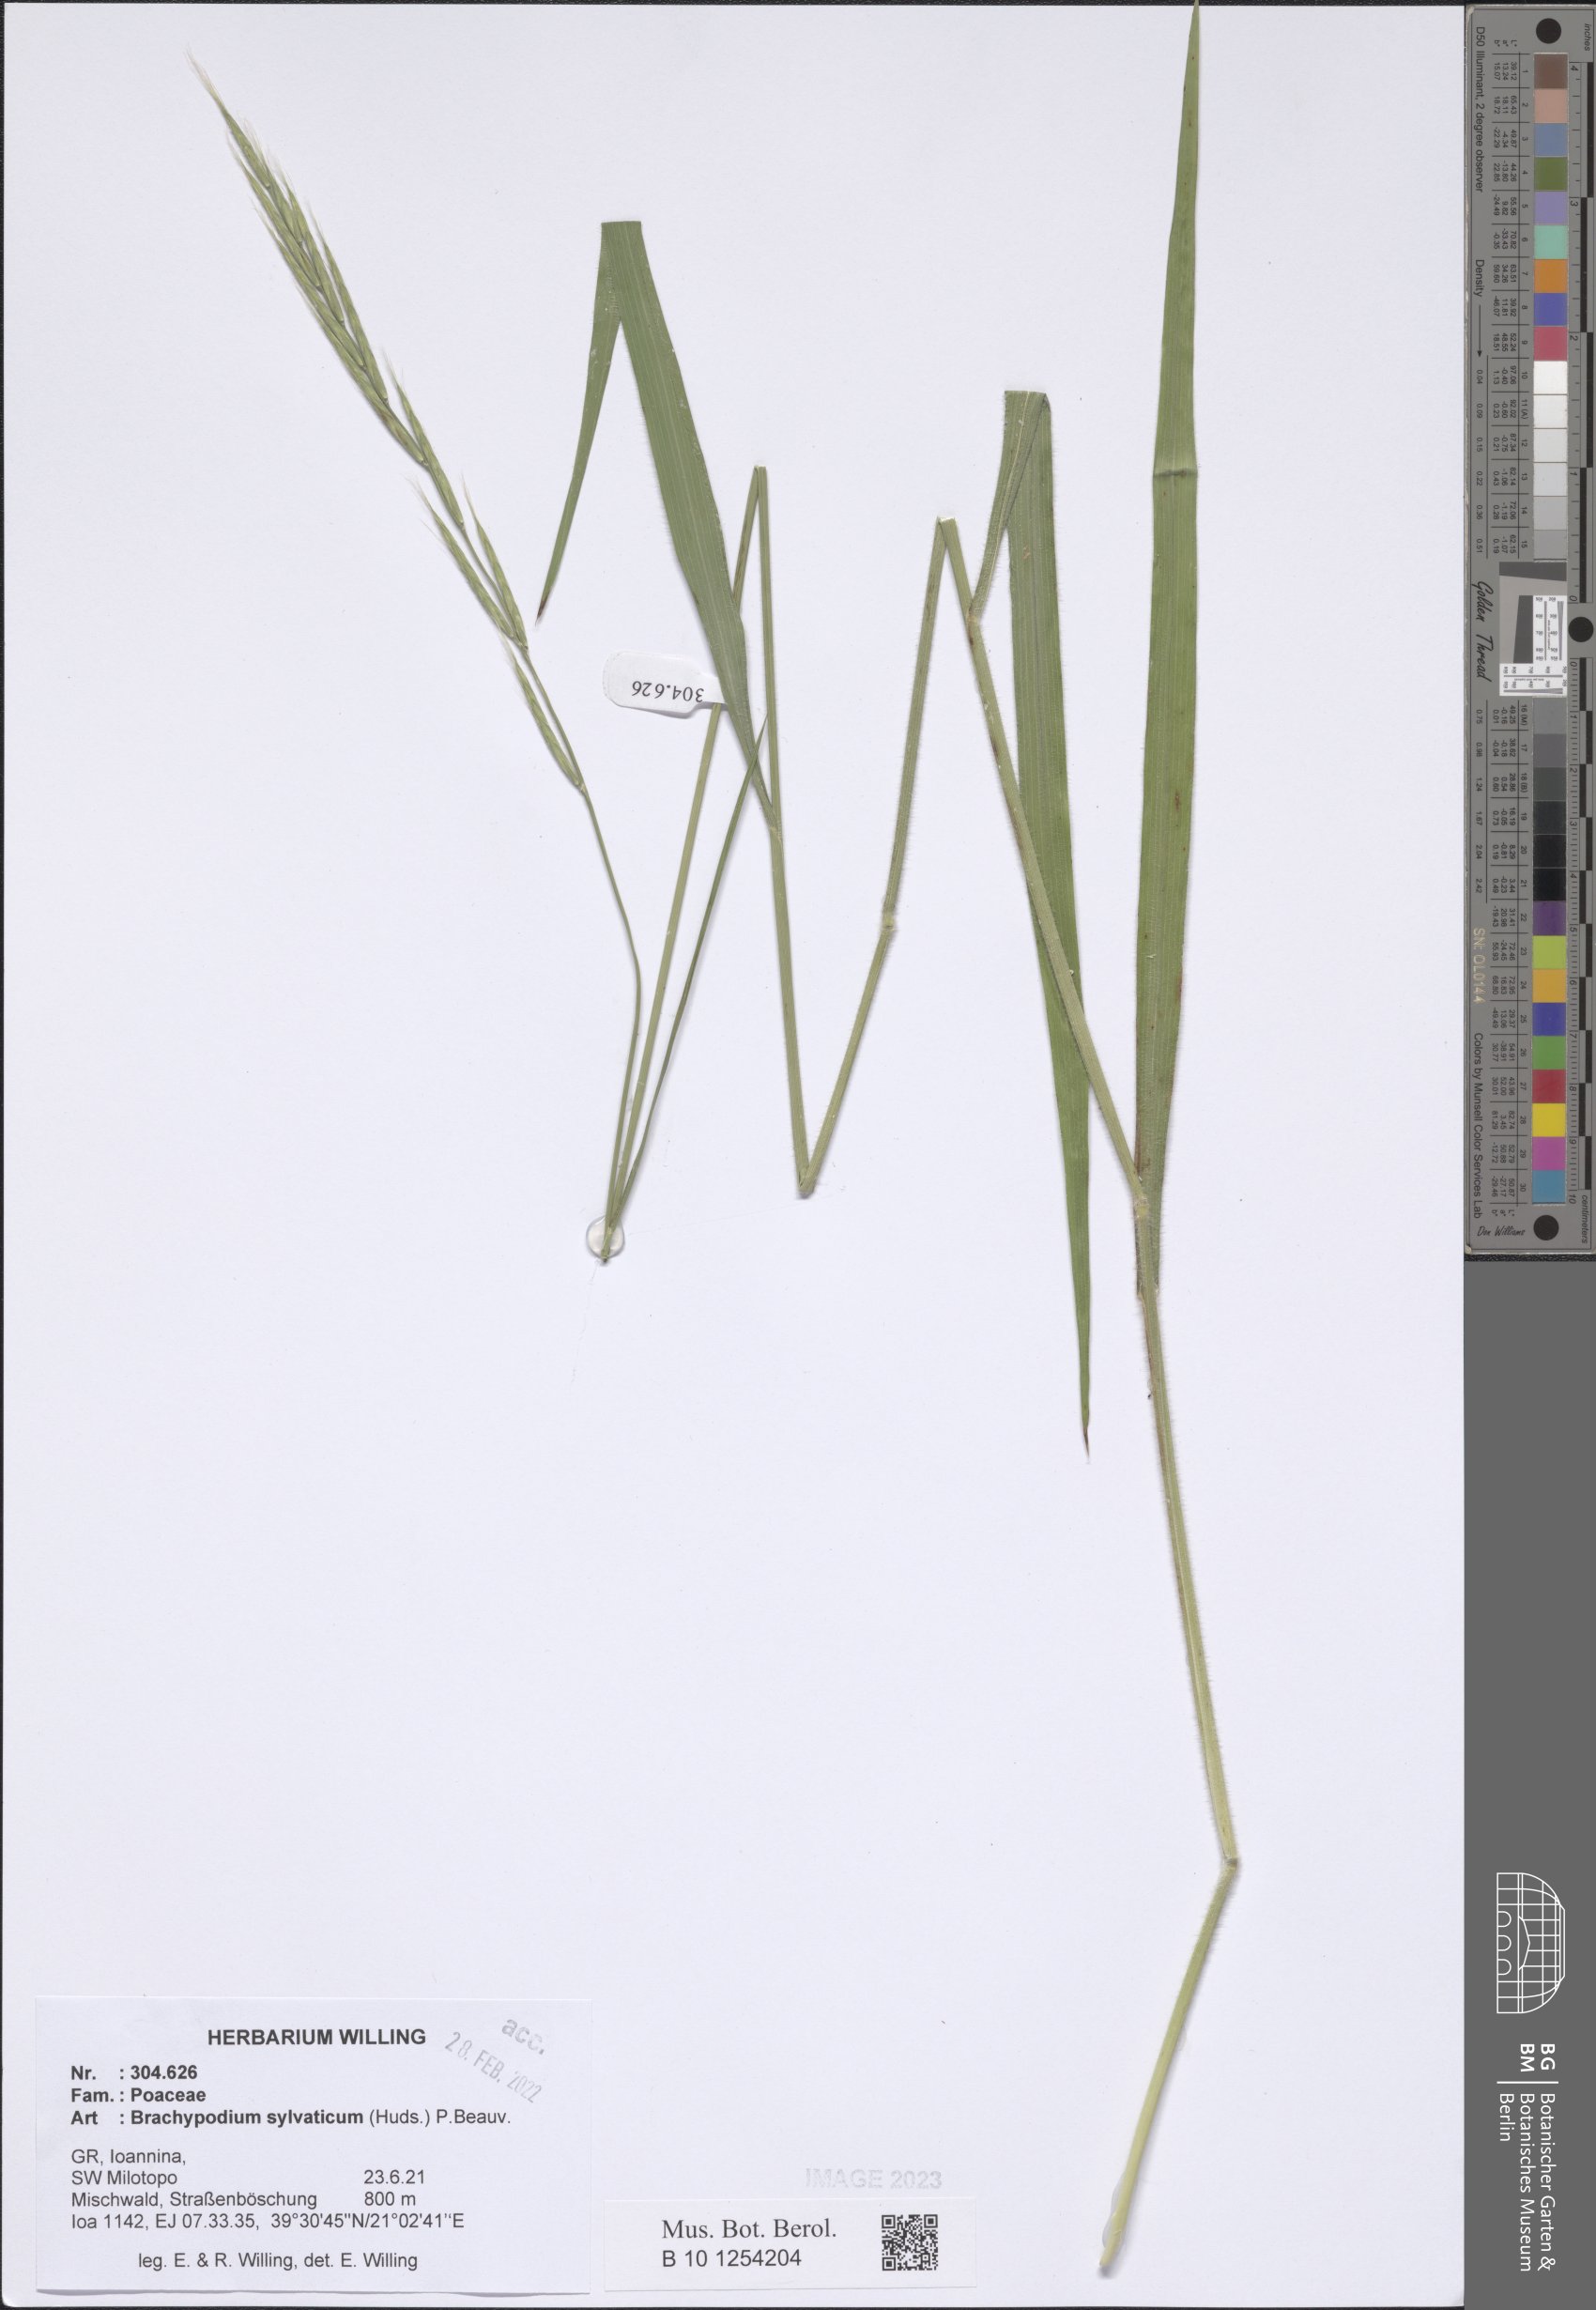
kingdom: Plantae
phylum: Tracheophyta
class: Liliopsida
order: Poales
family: Poaceae
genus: Brachypodium
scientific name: Brachypodium sylvaticum
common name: False-brome
